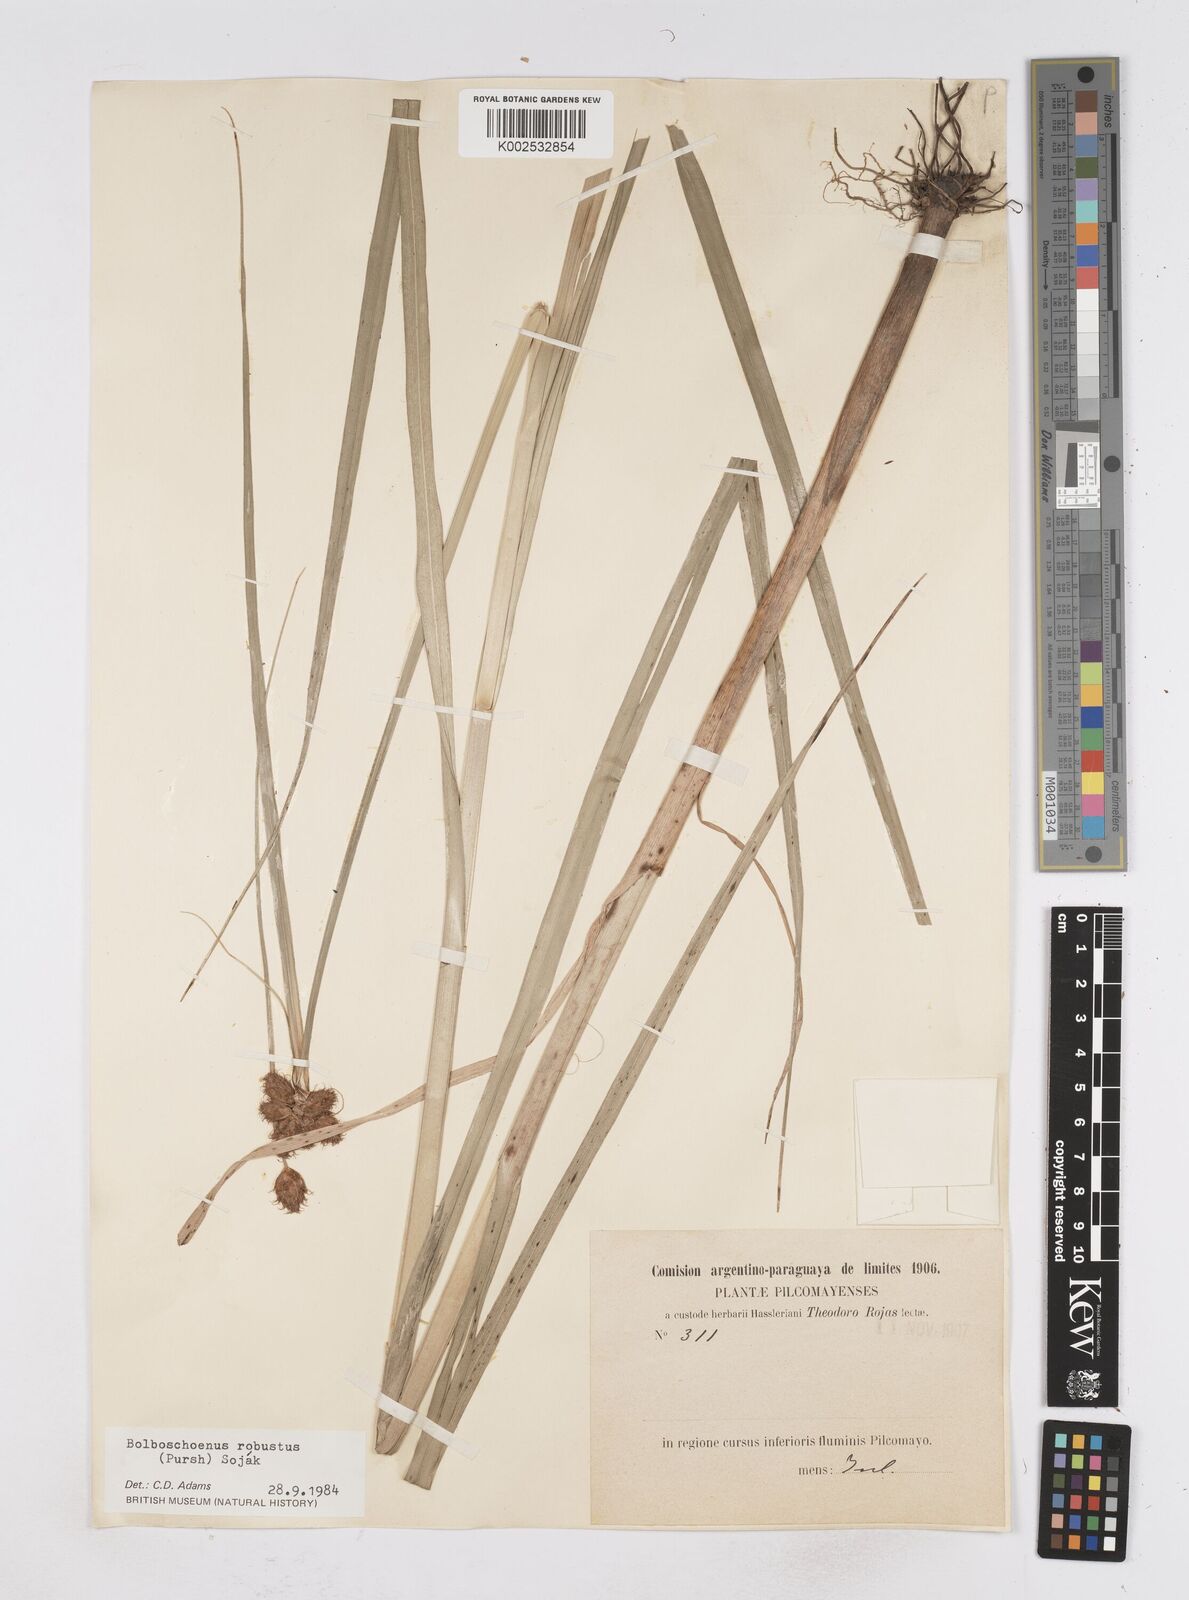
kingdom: Plantae
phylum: Tracheophyta
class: Liliopsida
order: Poales
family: Cyperaceae
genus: Bolboschoenus
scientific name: Bolboschoenus robustus
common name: Seacoast bulrush
